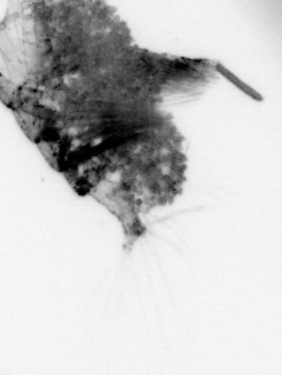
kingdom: Animalia
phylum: Arthropoda
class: Copepoda
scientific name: Copepoda
